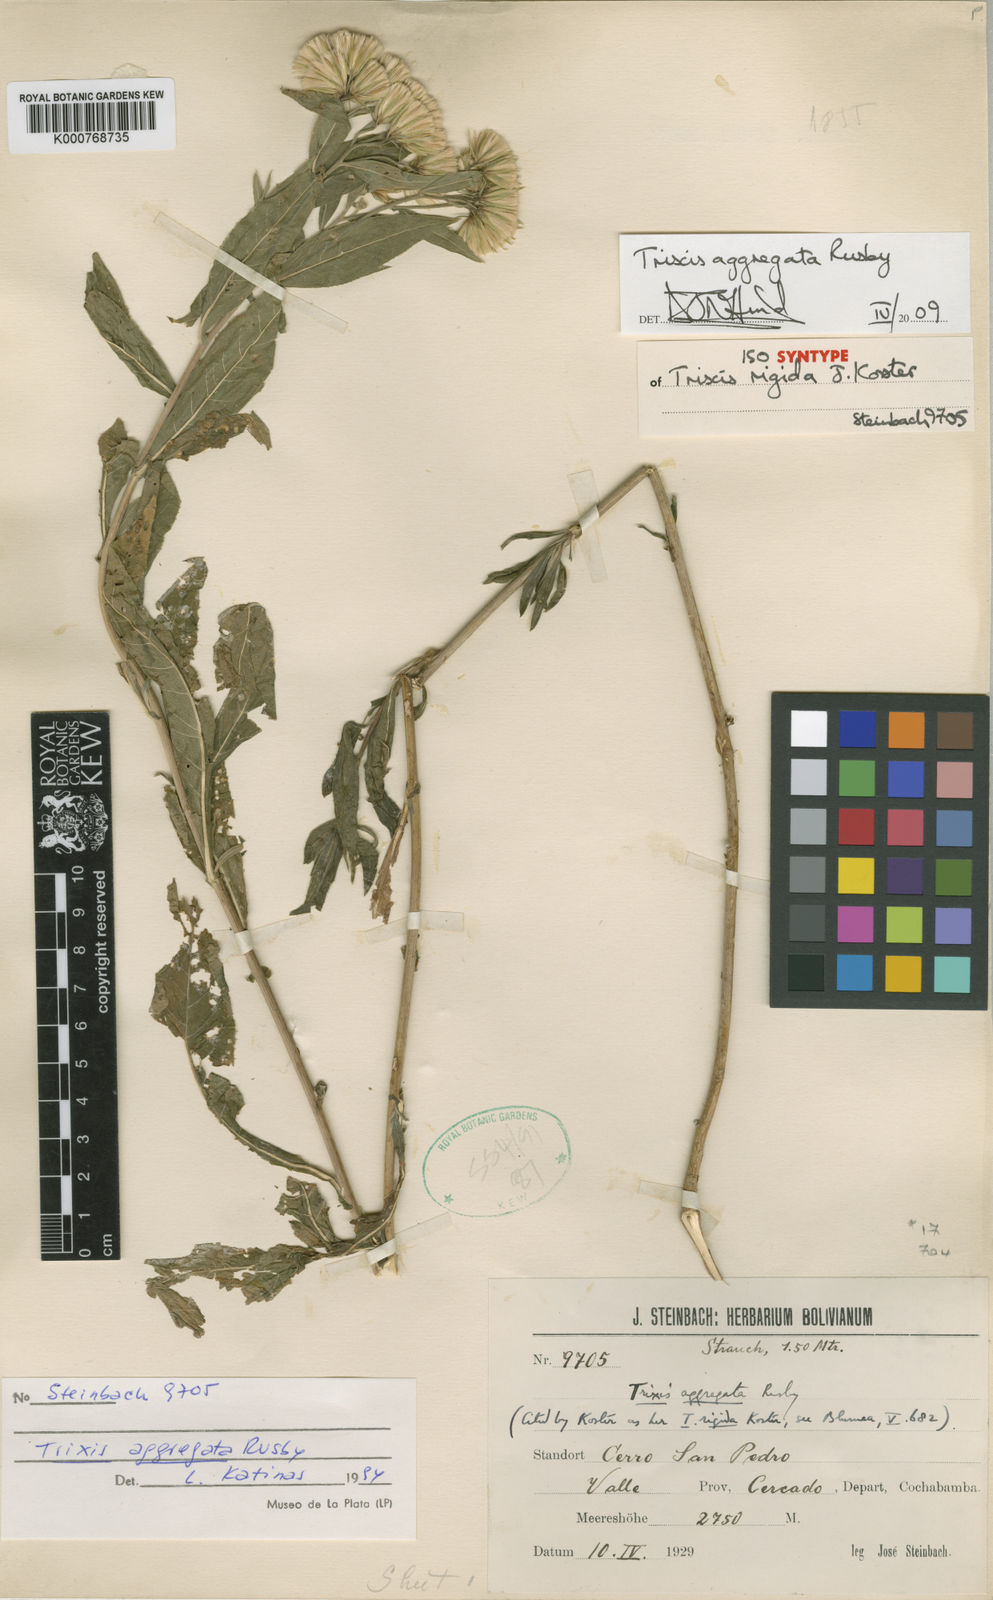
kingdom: Plantae
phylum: Tracheophyta
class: Magnoliopsida
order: Asterales
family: Asteraceae
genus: Trixis
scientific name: Trixis aggregata
